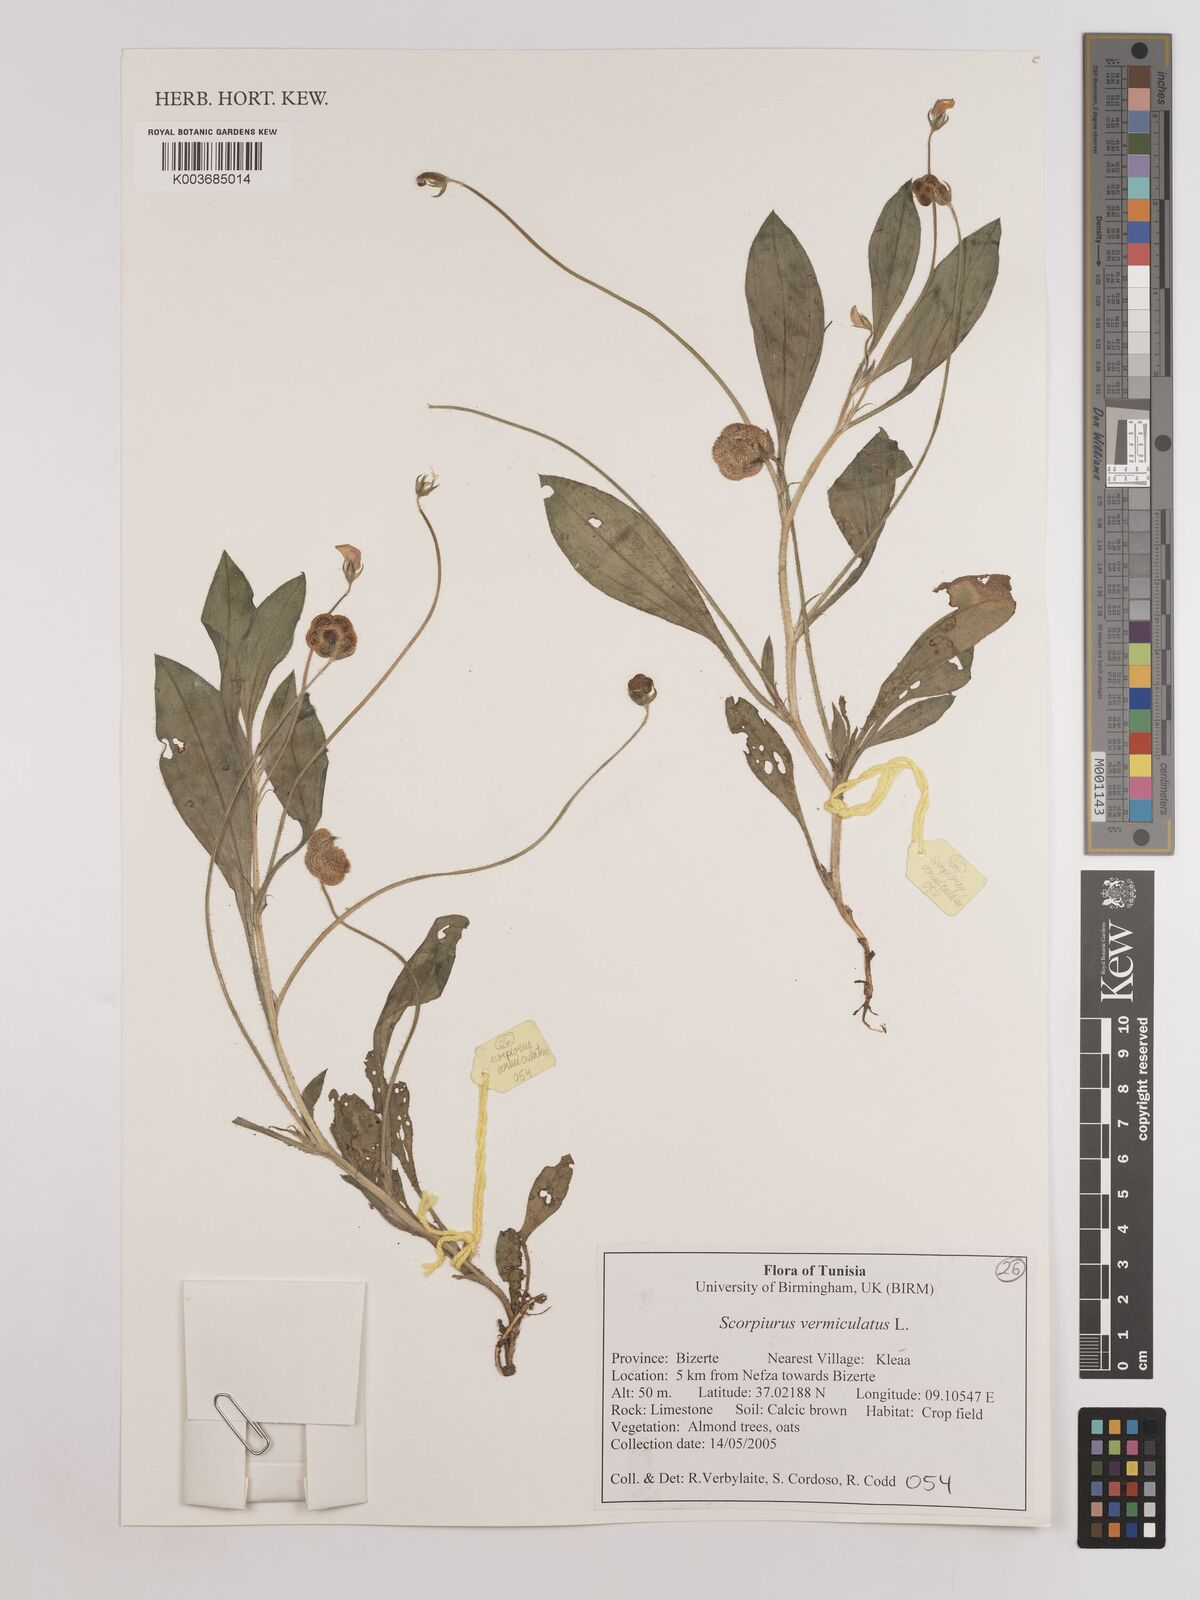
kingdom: Plantae
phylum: Tracheophyta
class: Magnoliopsida
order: Fabales
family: Fabaceae
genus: Scorpiurus
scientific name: Scorpiurus vermiculatus
